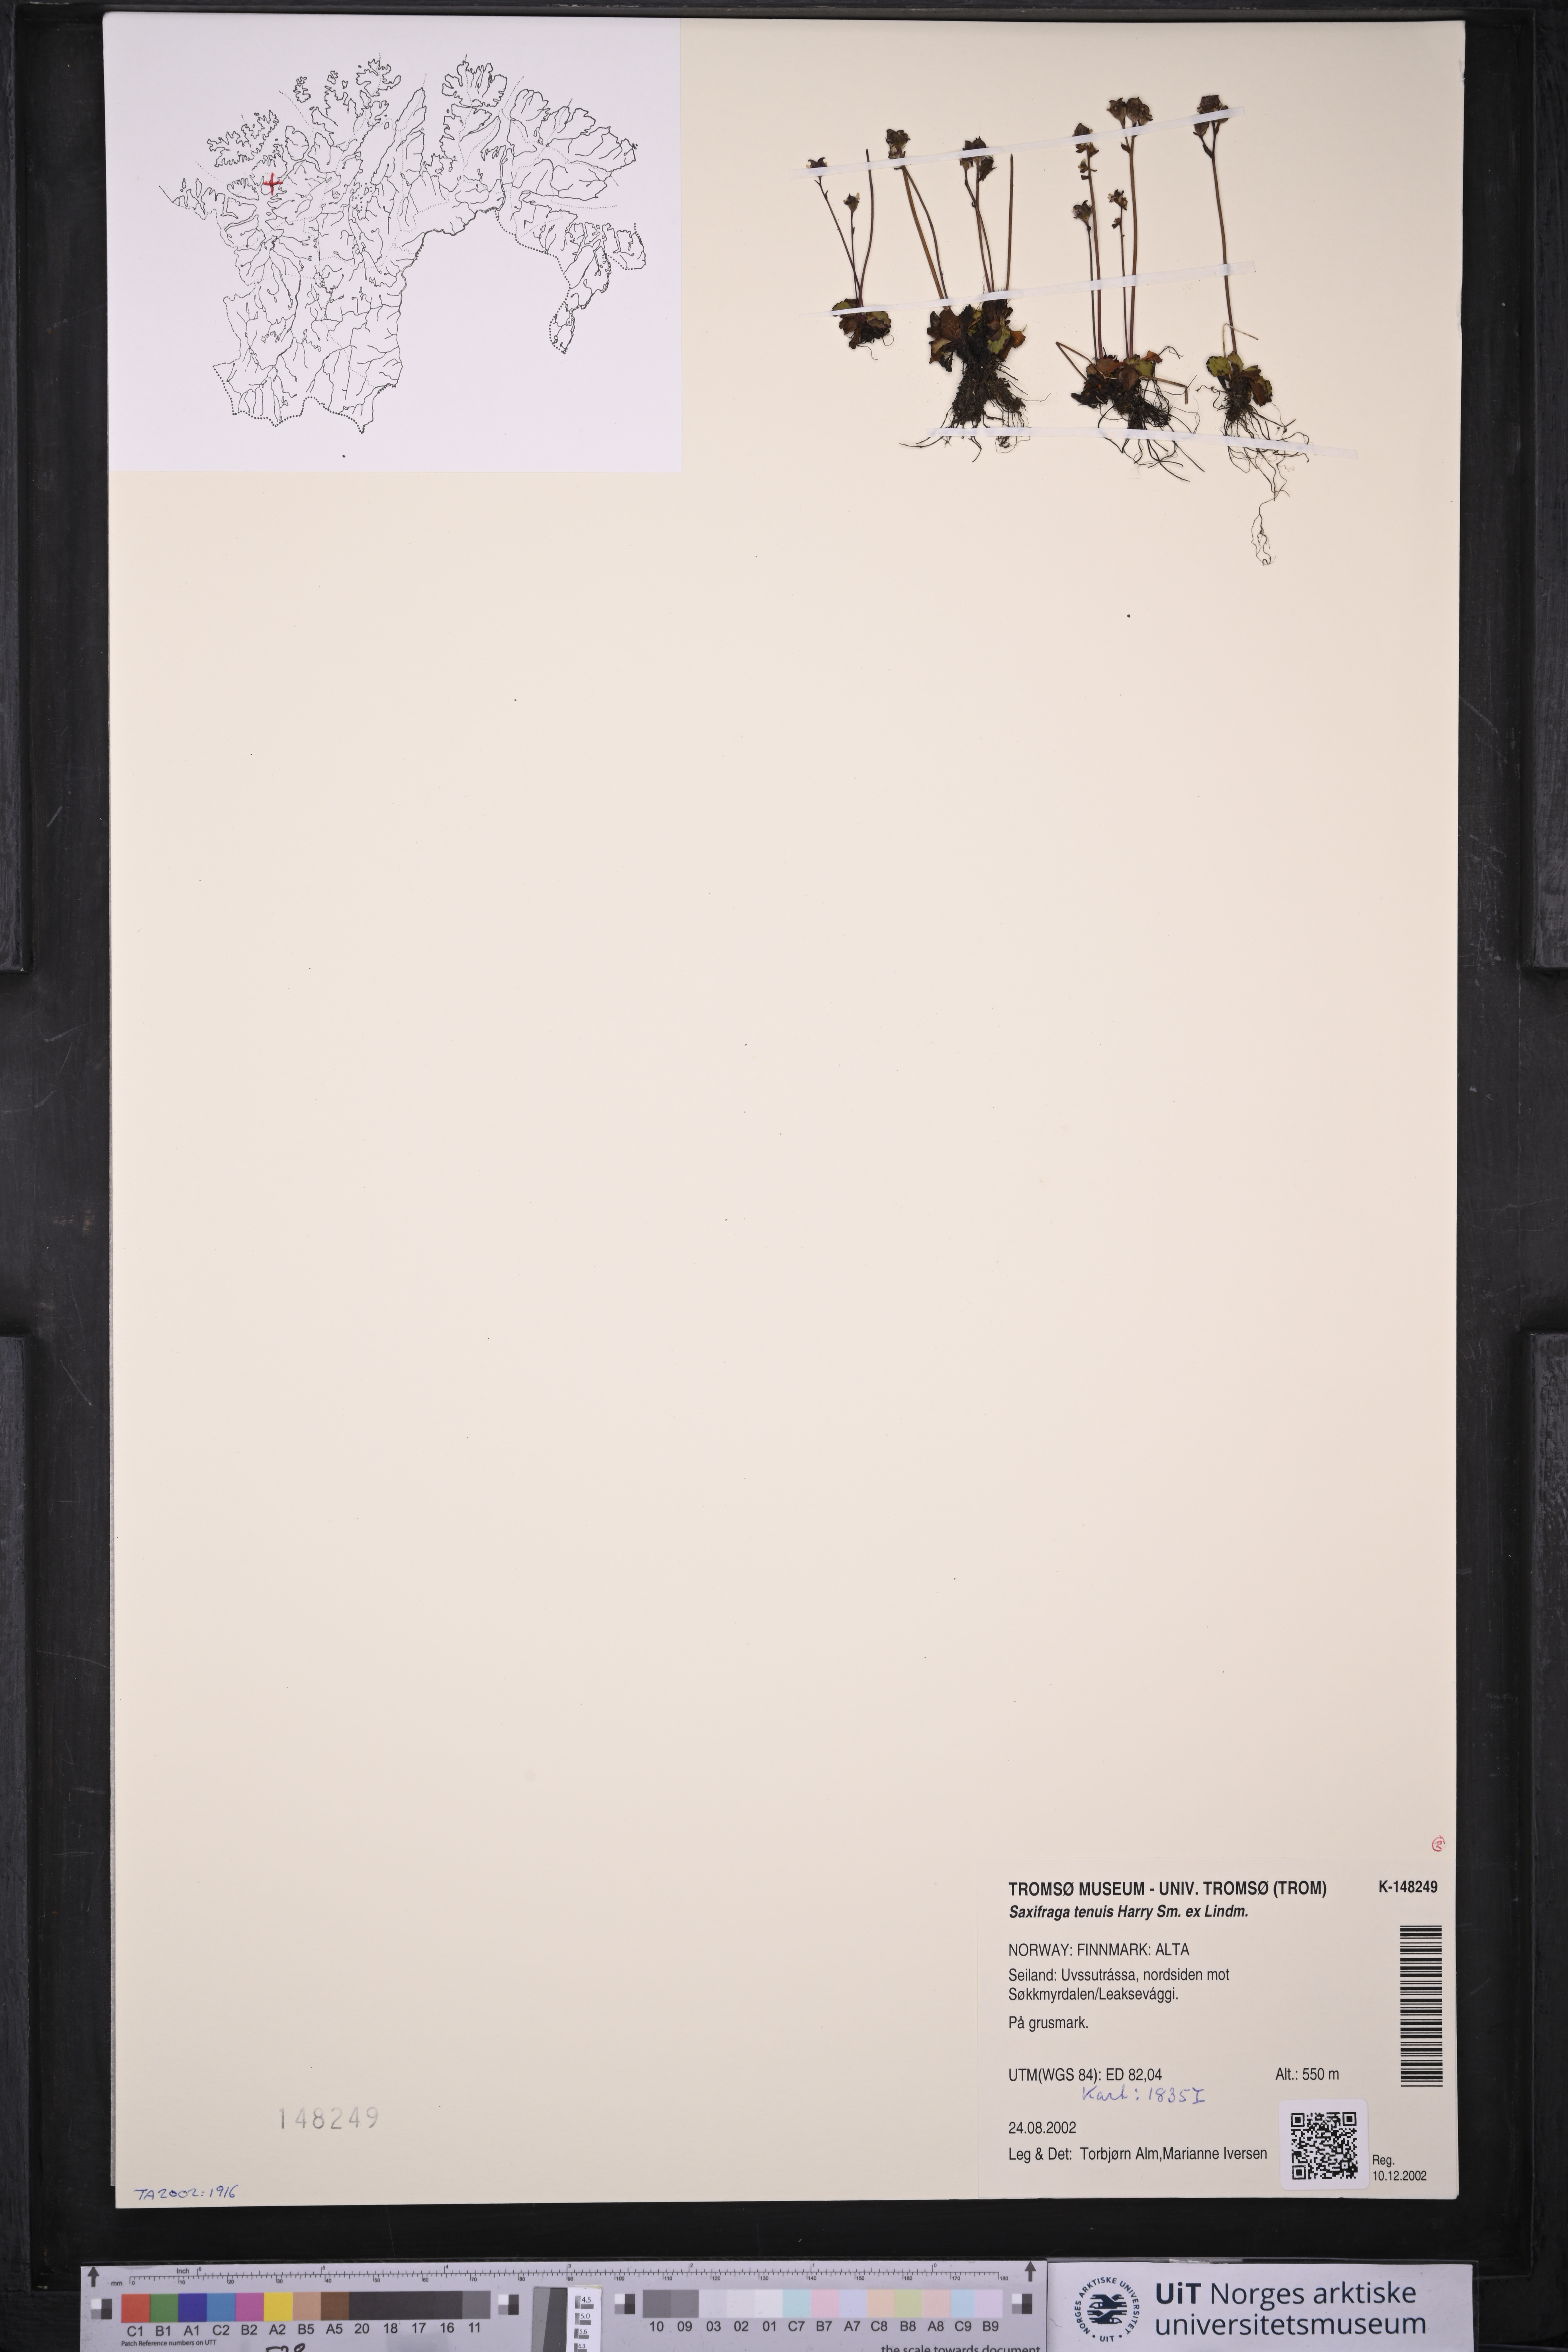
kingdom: Plantae
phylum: Tracheophyta
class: Magnoliopsida
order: Saxifragales
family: Saxifragaceae
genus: Micranthes
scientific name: Micranthes tenuis
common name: Ottertail pass saxifrage
